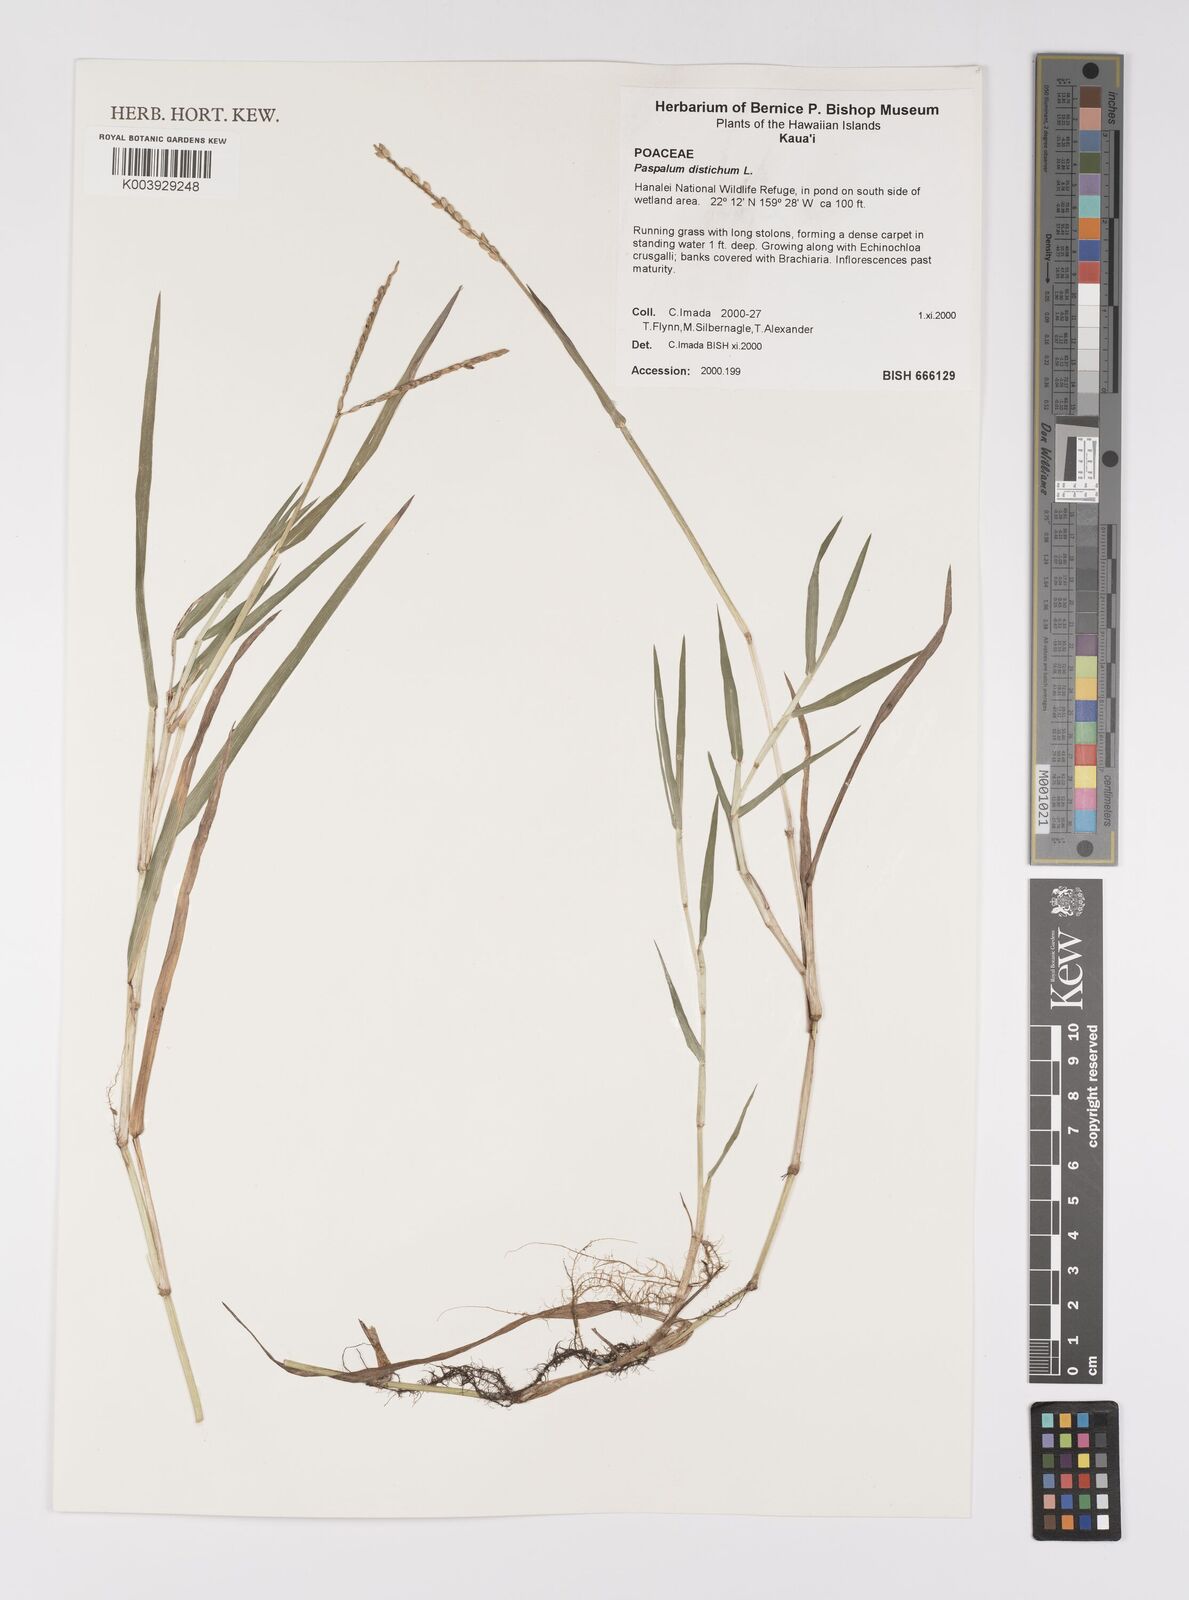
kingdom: Plantae
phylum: Tracheophyta
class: Liliopsida
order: Poales
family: Poaceae
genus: Paspalum
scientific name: Paspalum notatum
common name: Bahiagrass
